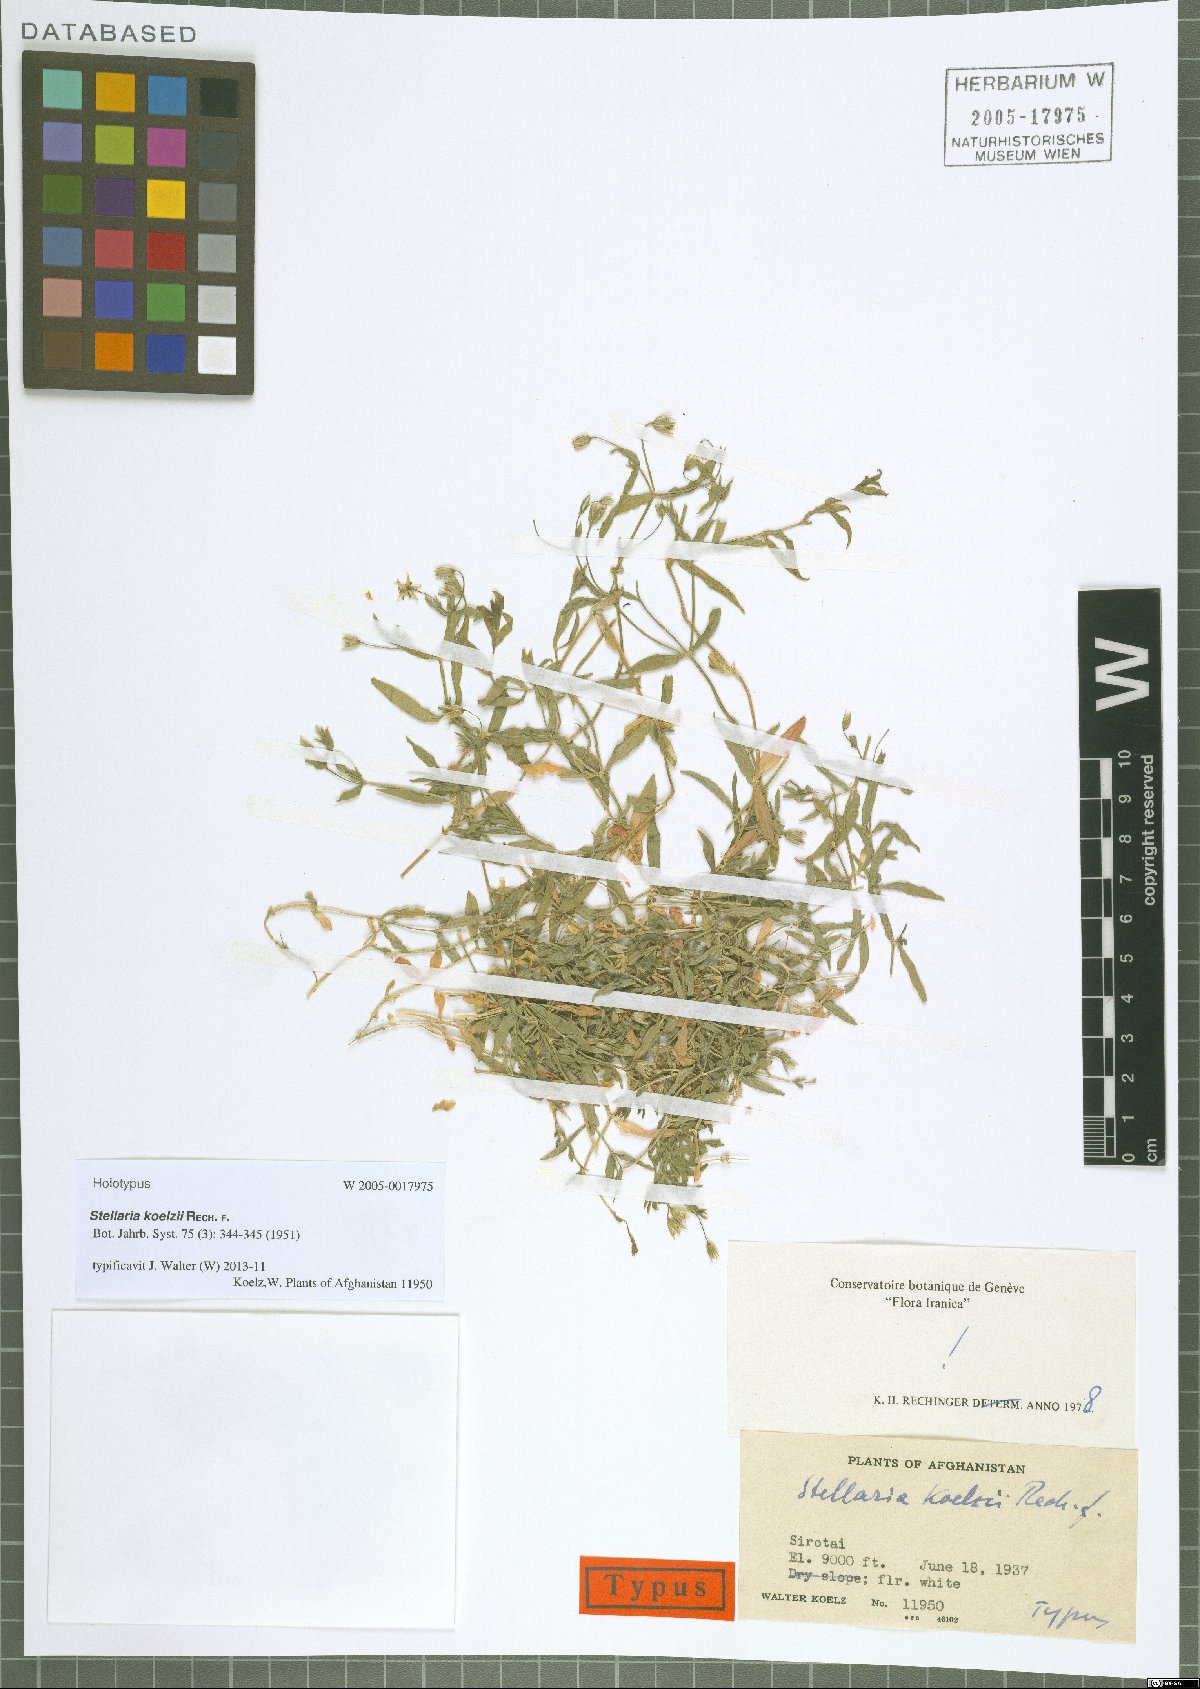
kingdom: Plantae
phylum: Tracheophyta
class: Magnoliopsida
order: Caryophyllales
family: Caryophyllaceae
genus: Stellaria
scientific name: Stellaria koelzii
